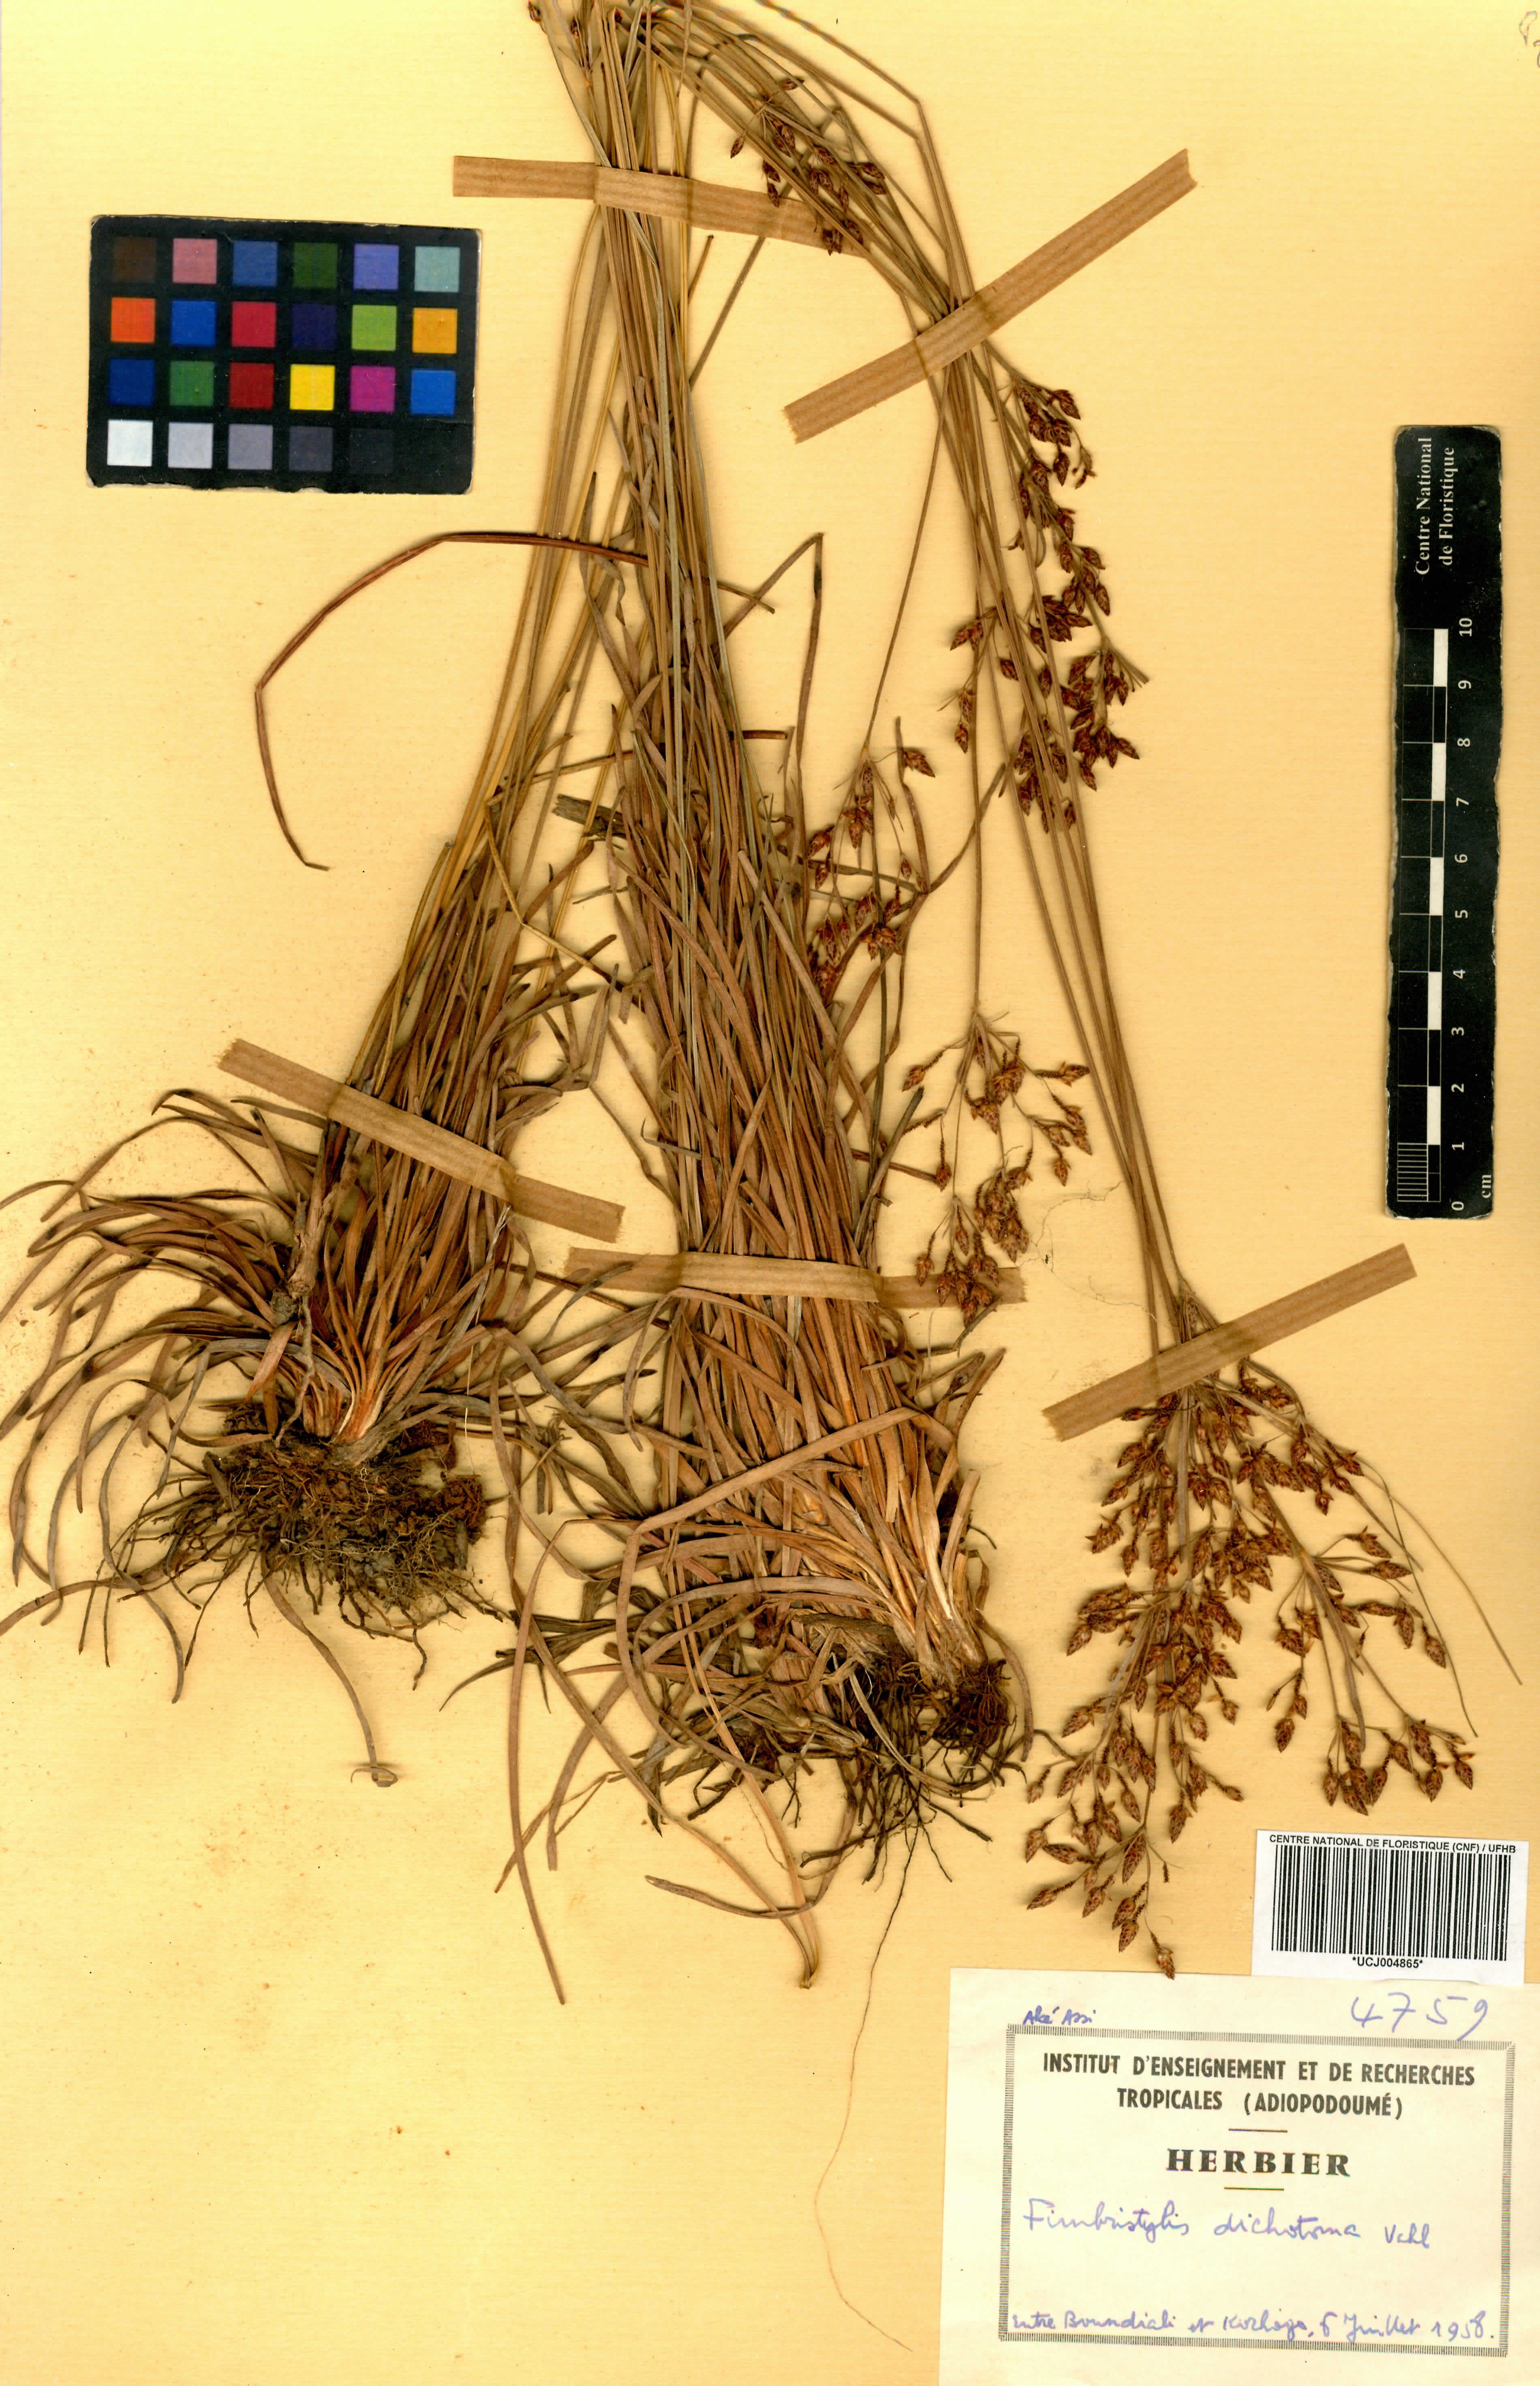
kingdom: Plantae
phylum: Tracheophyta
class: Liliopsida
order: Poales
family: Cyperaceae
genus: Fimbristylis
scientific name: Fimbristylis dichotoma
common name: Forked fimbry
